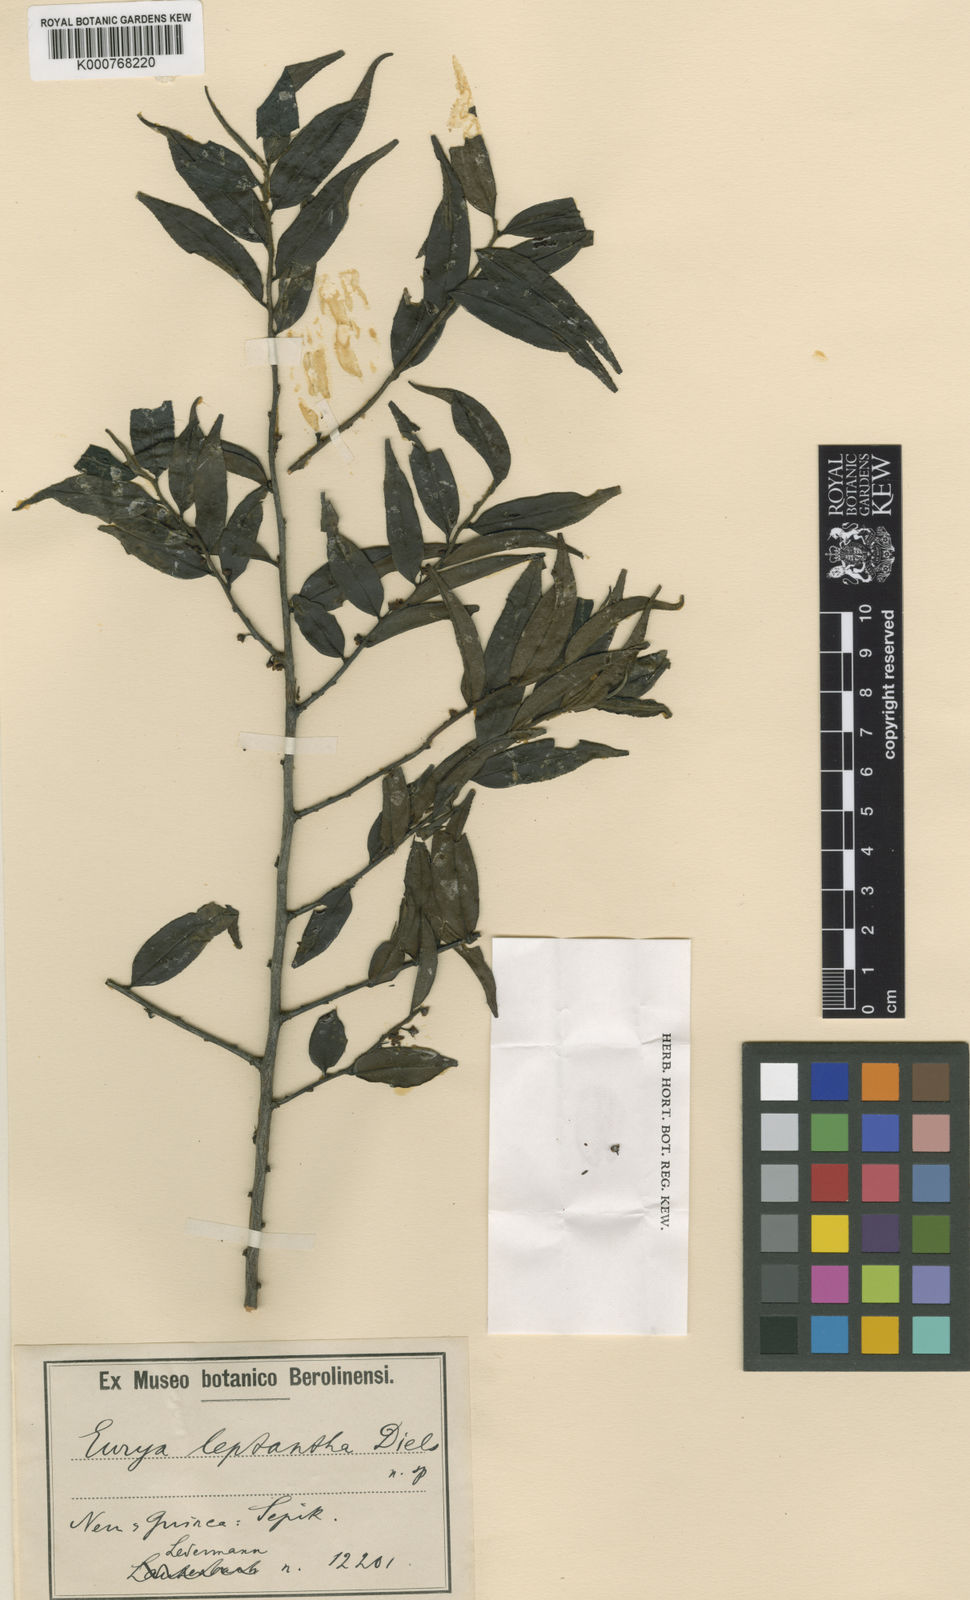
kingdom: Plantae
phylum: Tracheophyta
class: Magnoliopsida
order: Ericales
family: Pentaphylacaceae
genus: Eurya
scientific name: Eurya
